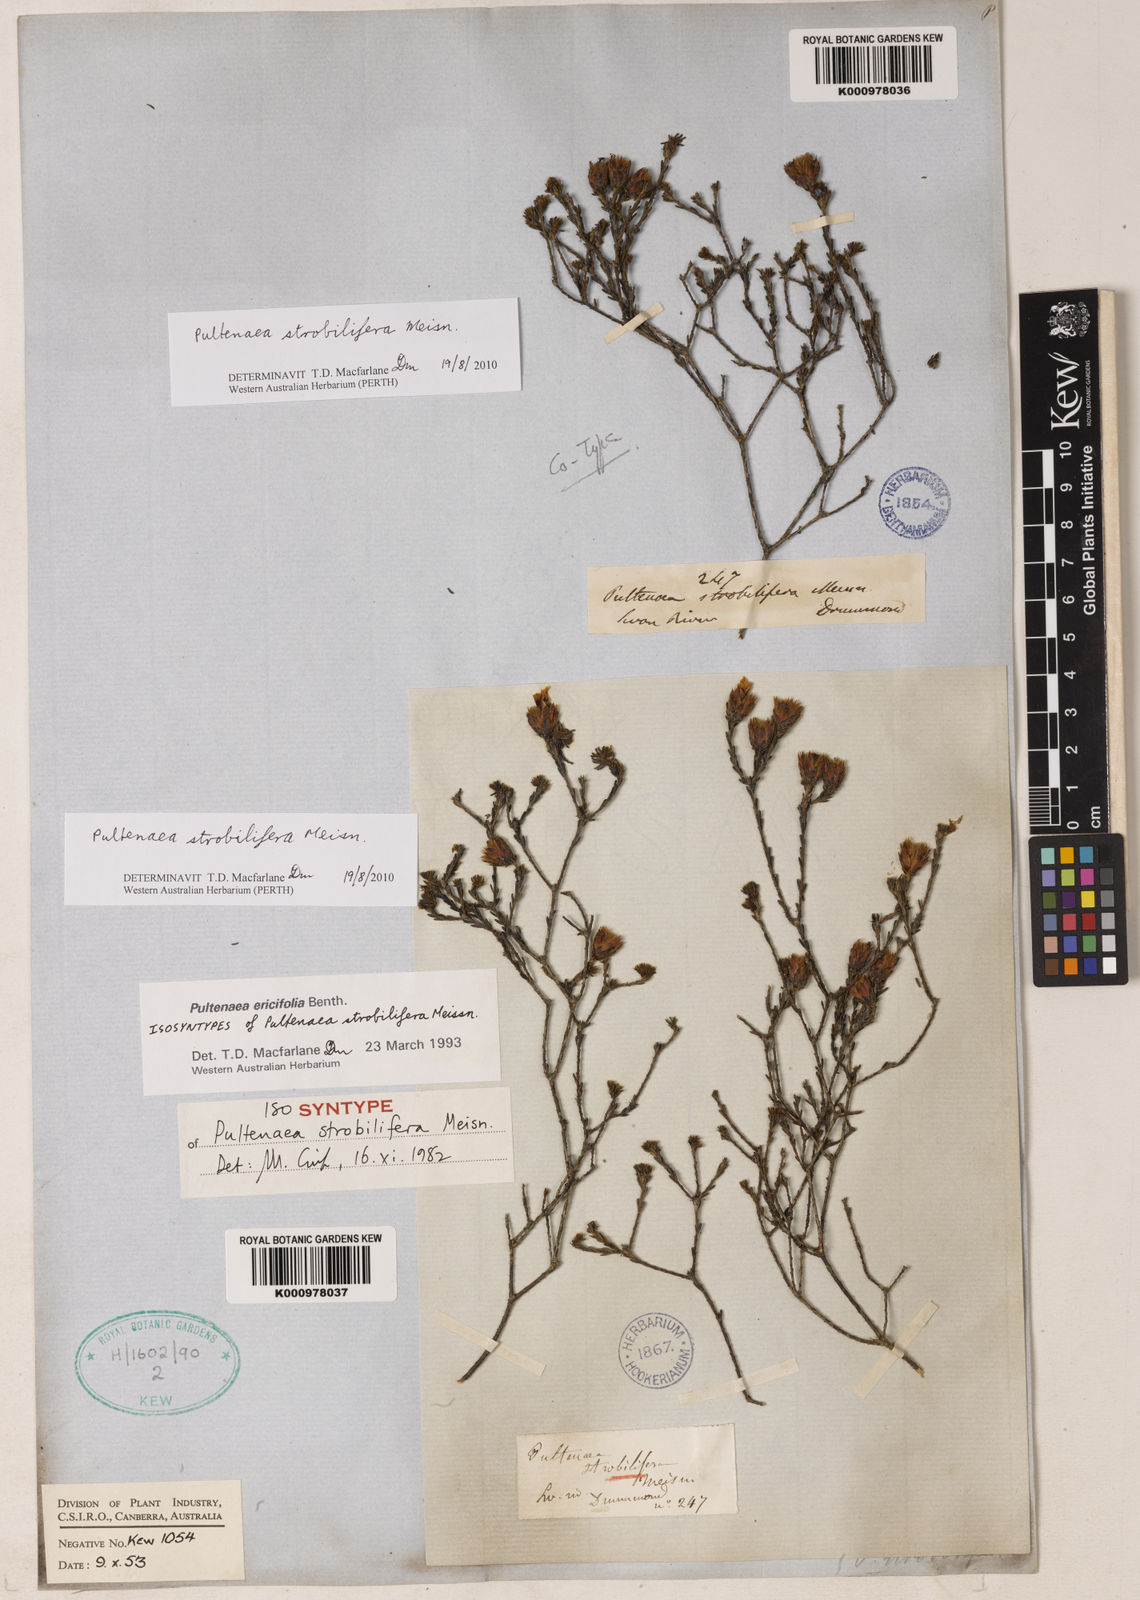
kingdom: Plantae
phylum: Tracheophyta
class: Magnoliopsida
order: Fabales
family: Fabaceae
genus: Pultenaea
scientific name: Pultenaea
